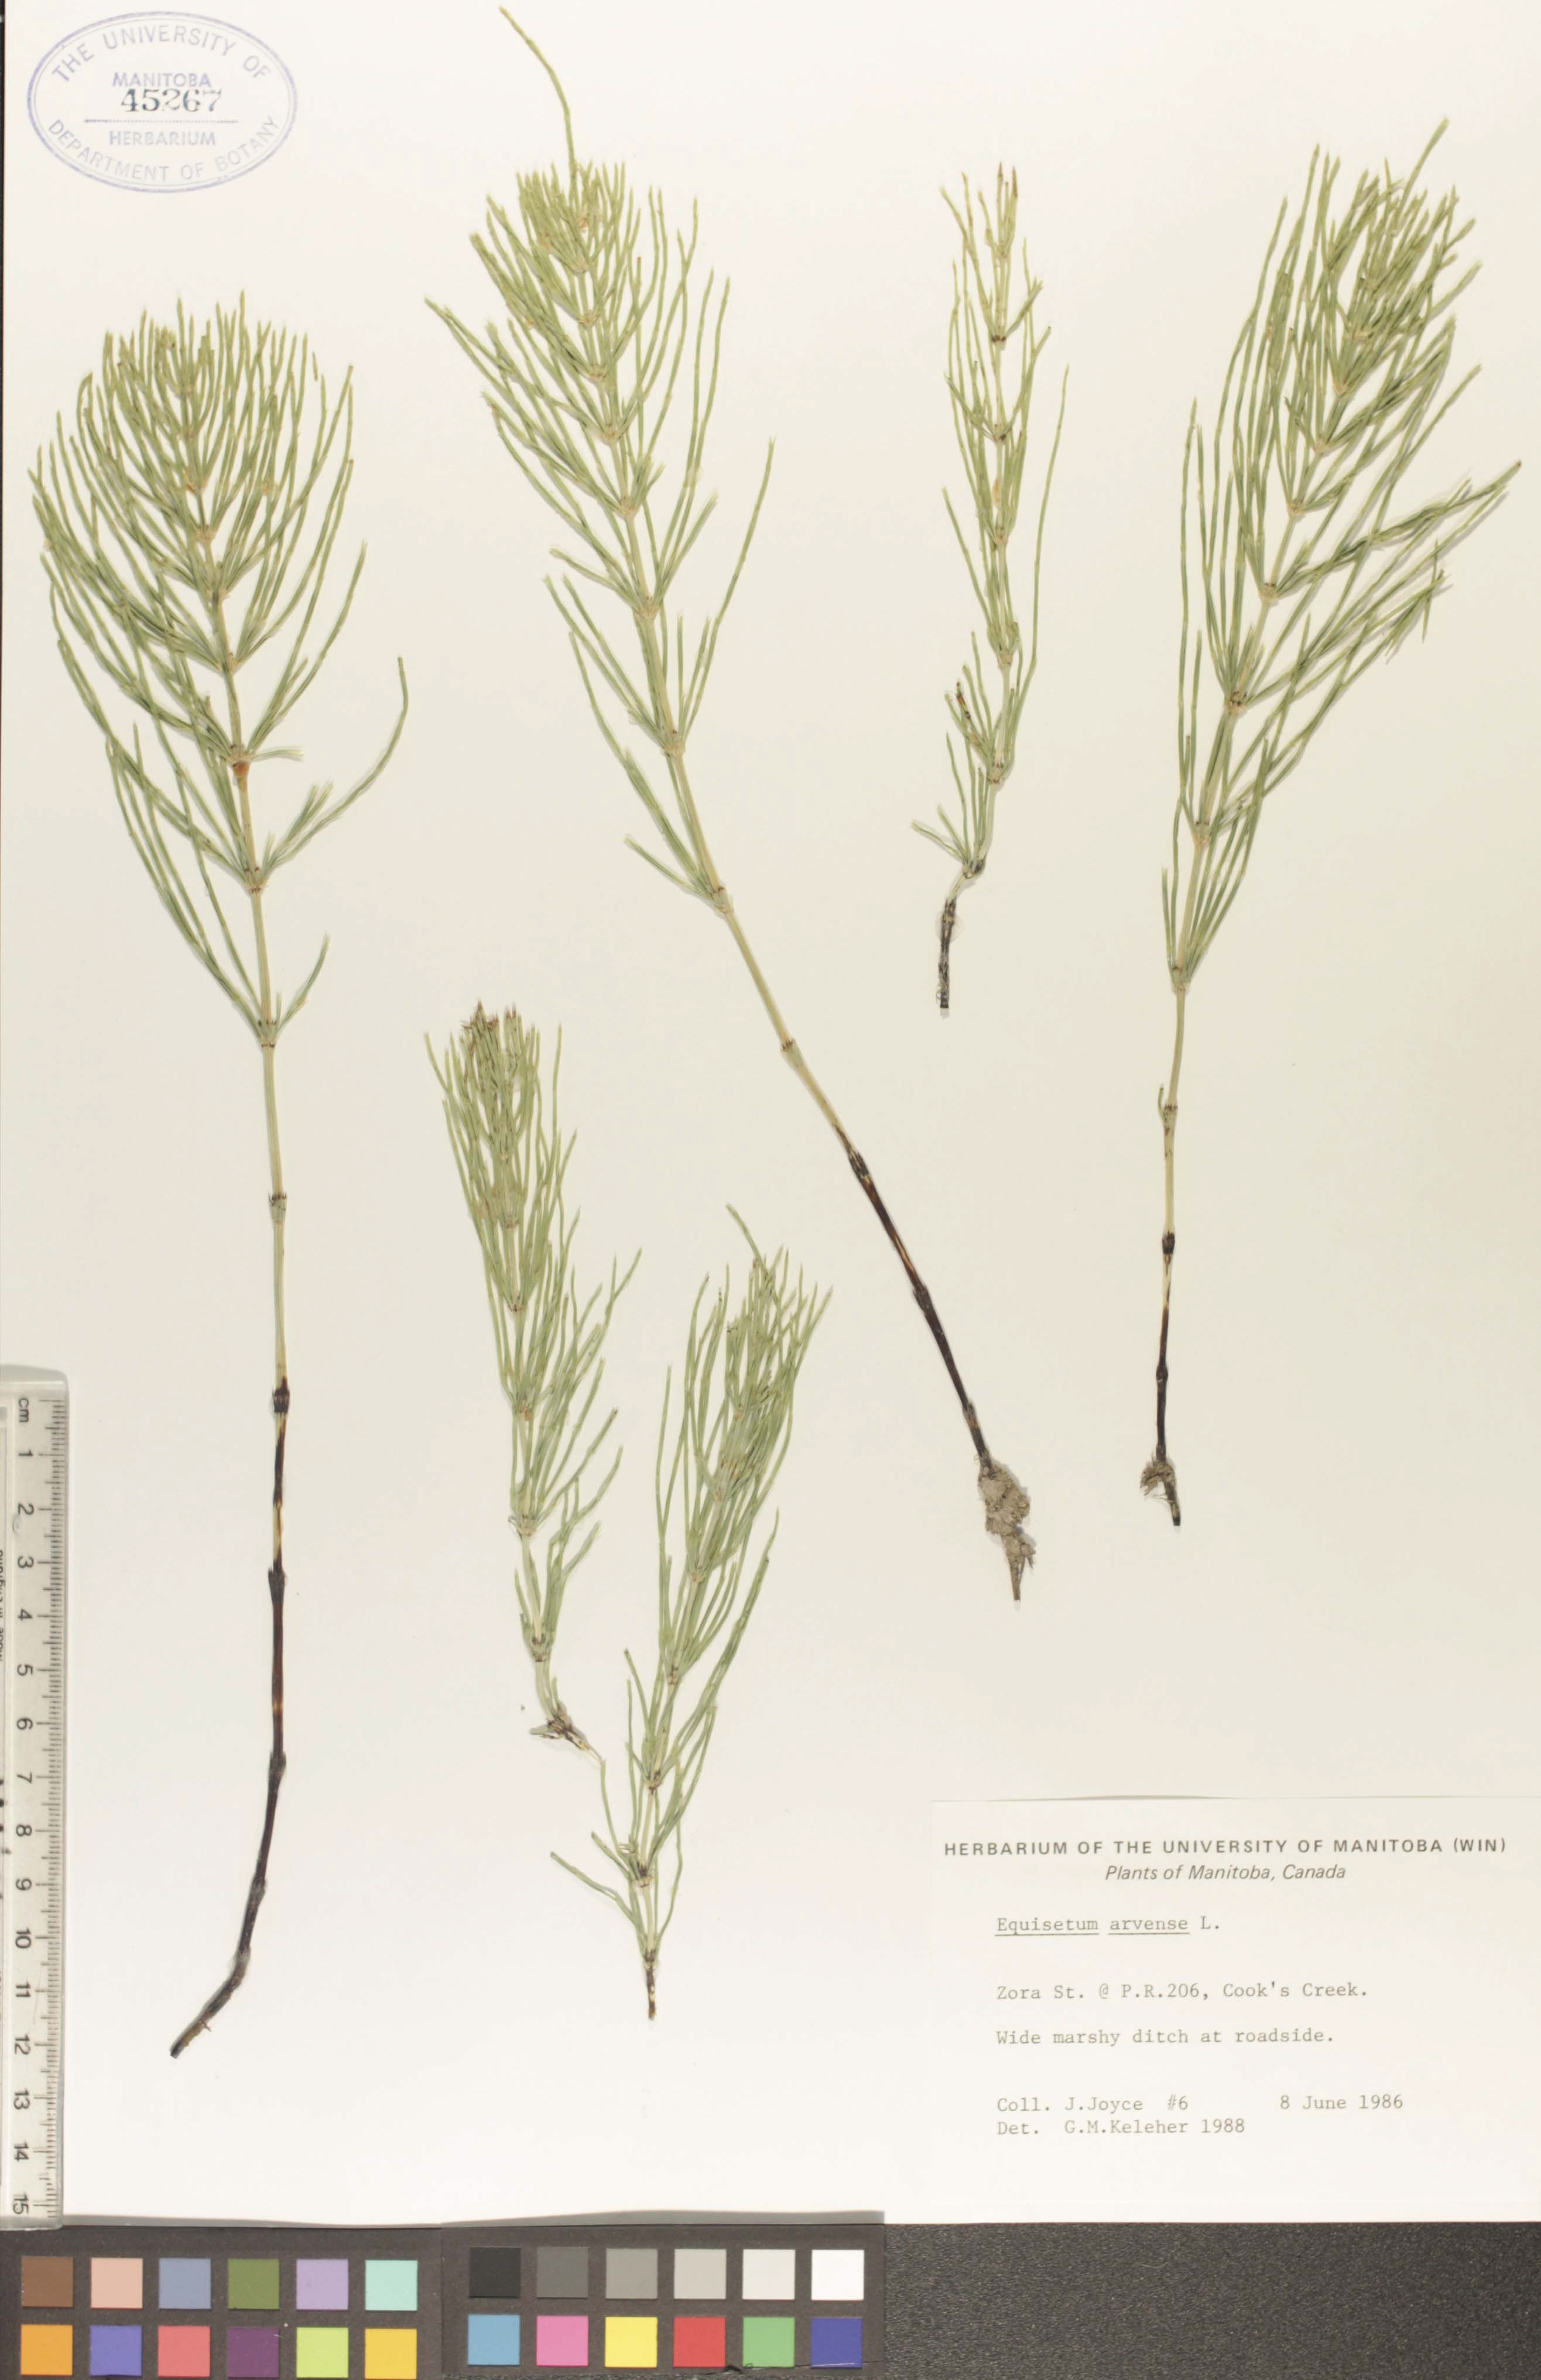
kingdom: Plantae
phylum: Tracheophyta
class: Polypodiopsida
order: Equisetales
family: Equisetaceae
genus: Equisetum
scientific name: Equisetum arvense
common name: Field horsetail
